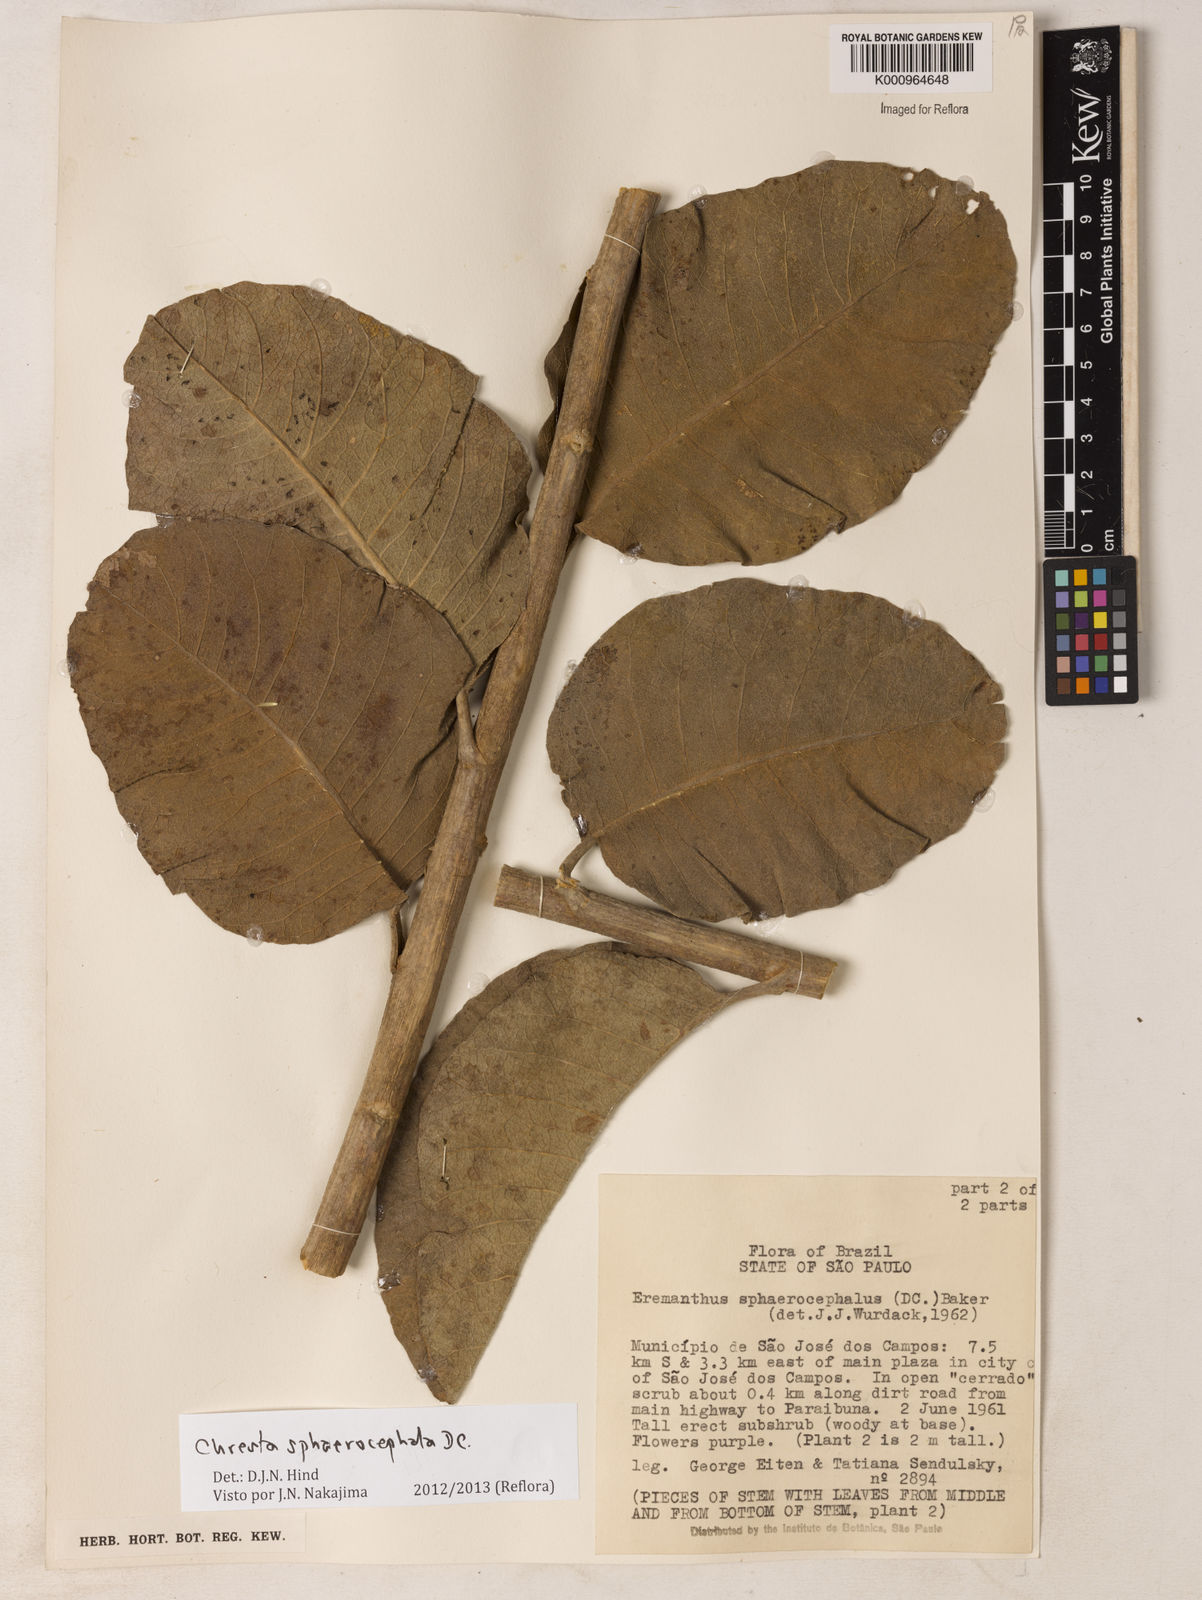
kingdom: Plantae
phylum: Tracheophyta
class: Magnoliopsida
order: Asterales
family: Asteraceae
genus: Chresta
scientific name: Chresta sphaerocephala
